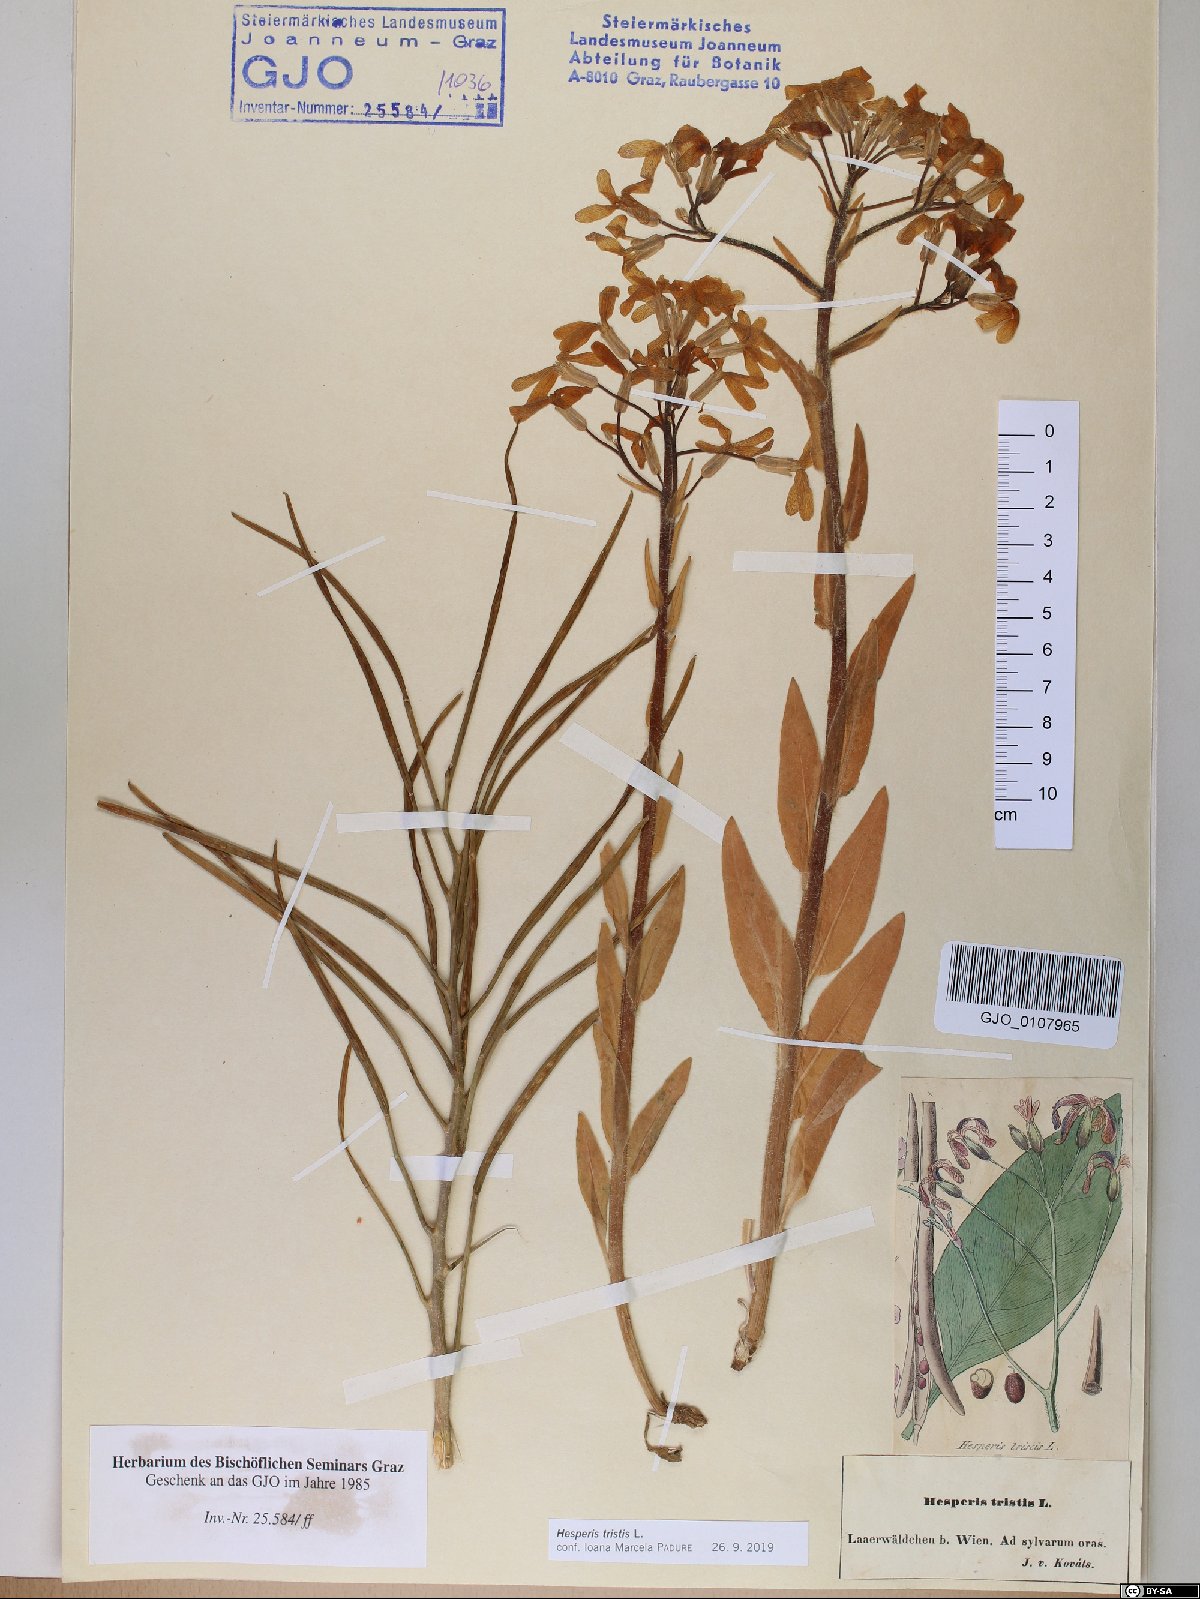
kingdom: Plantae
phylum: Tracheophyta
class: Magnoliopsida
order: Brassicales
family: Brassicaceae
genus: Hesperis
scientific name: Hesperis tristis
